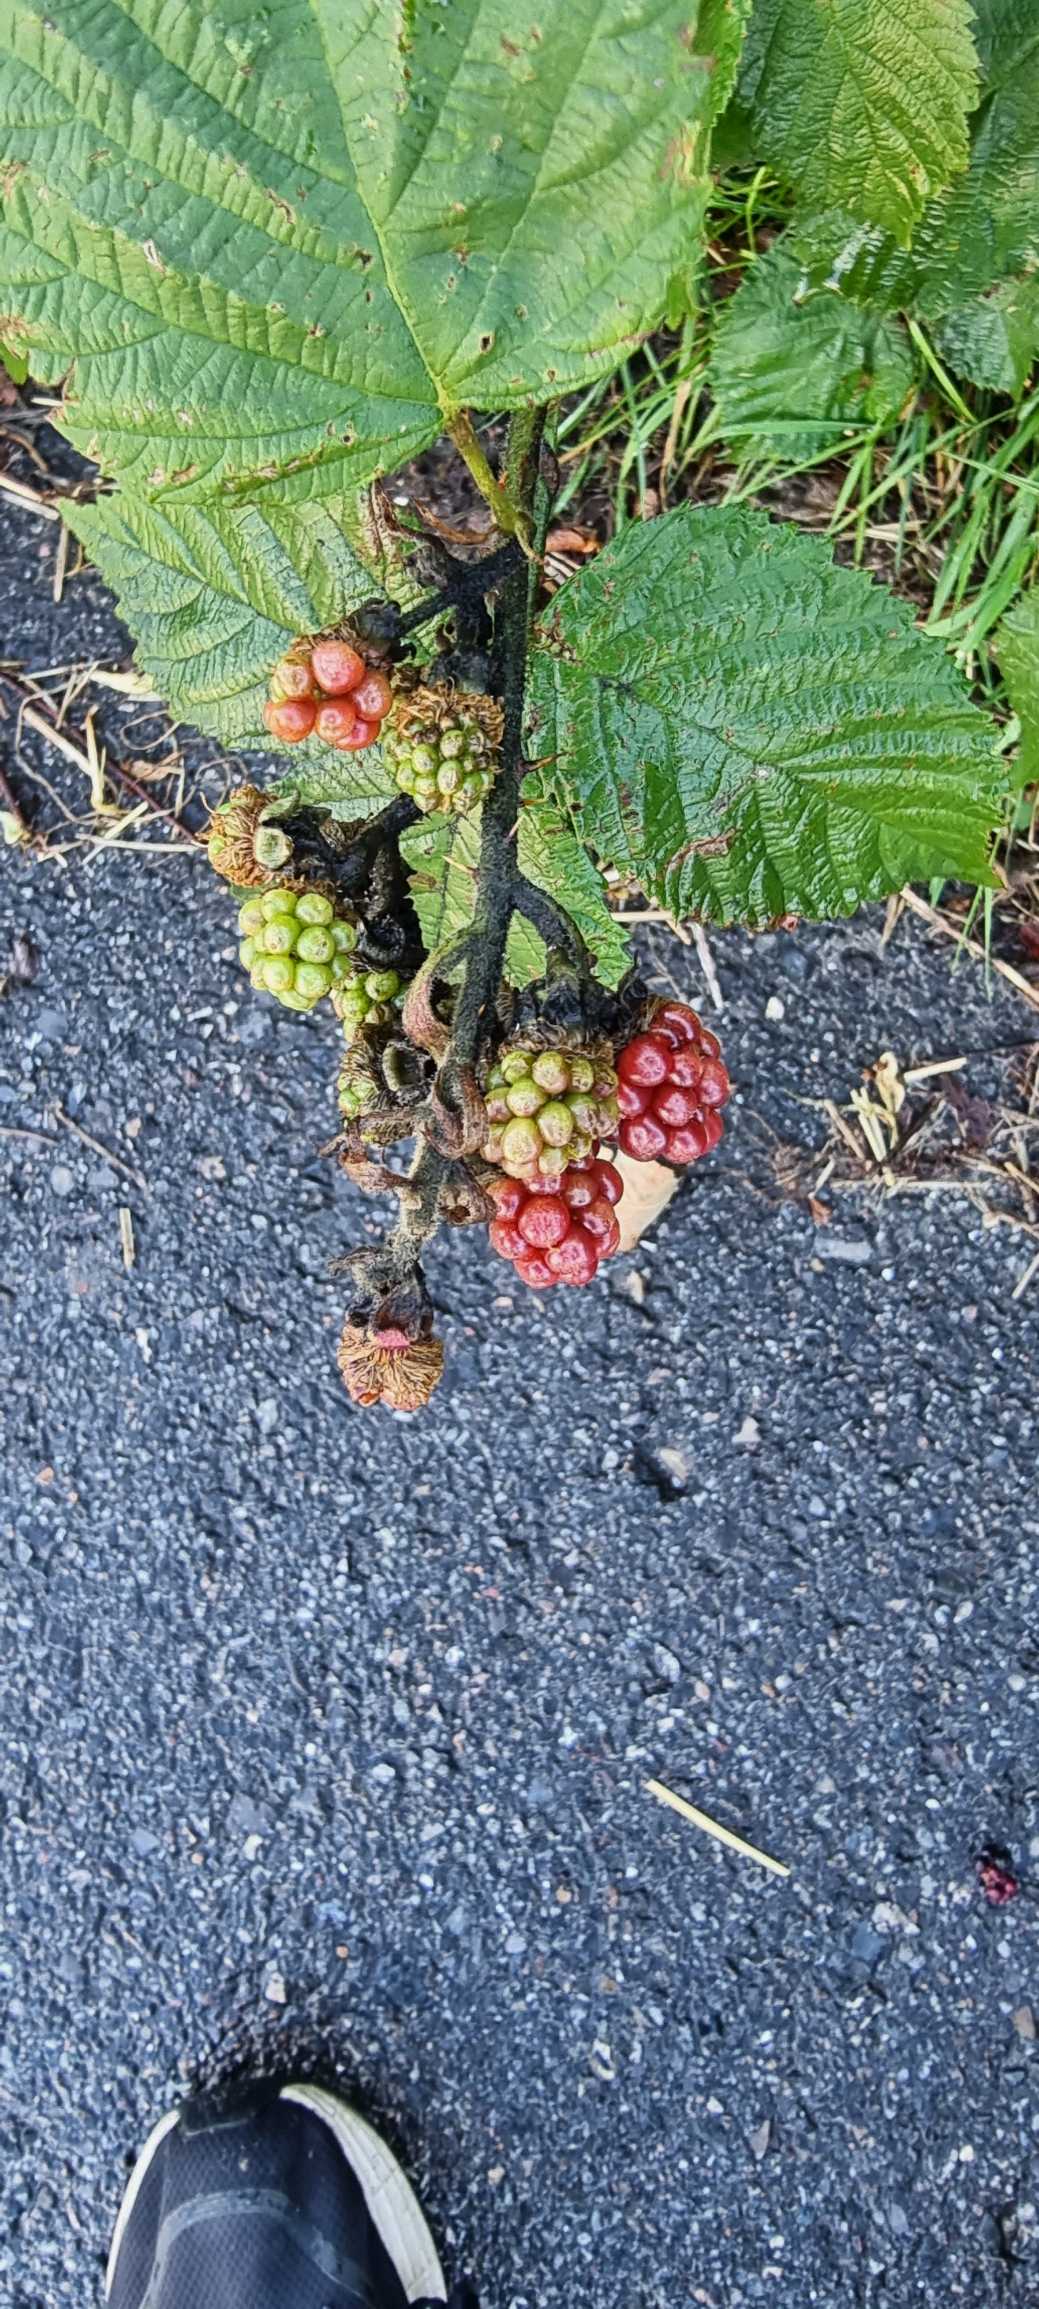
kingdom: Plantae
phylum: Tracheophyta
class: Magnoliopsida
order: Rosales
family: Rosaceae
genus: Rubus
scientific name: Rubus
